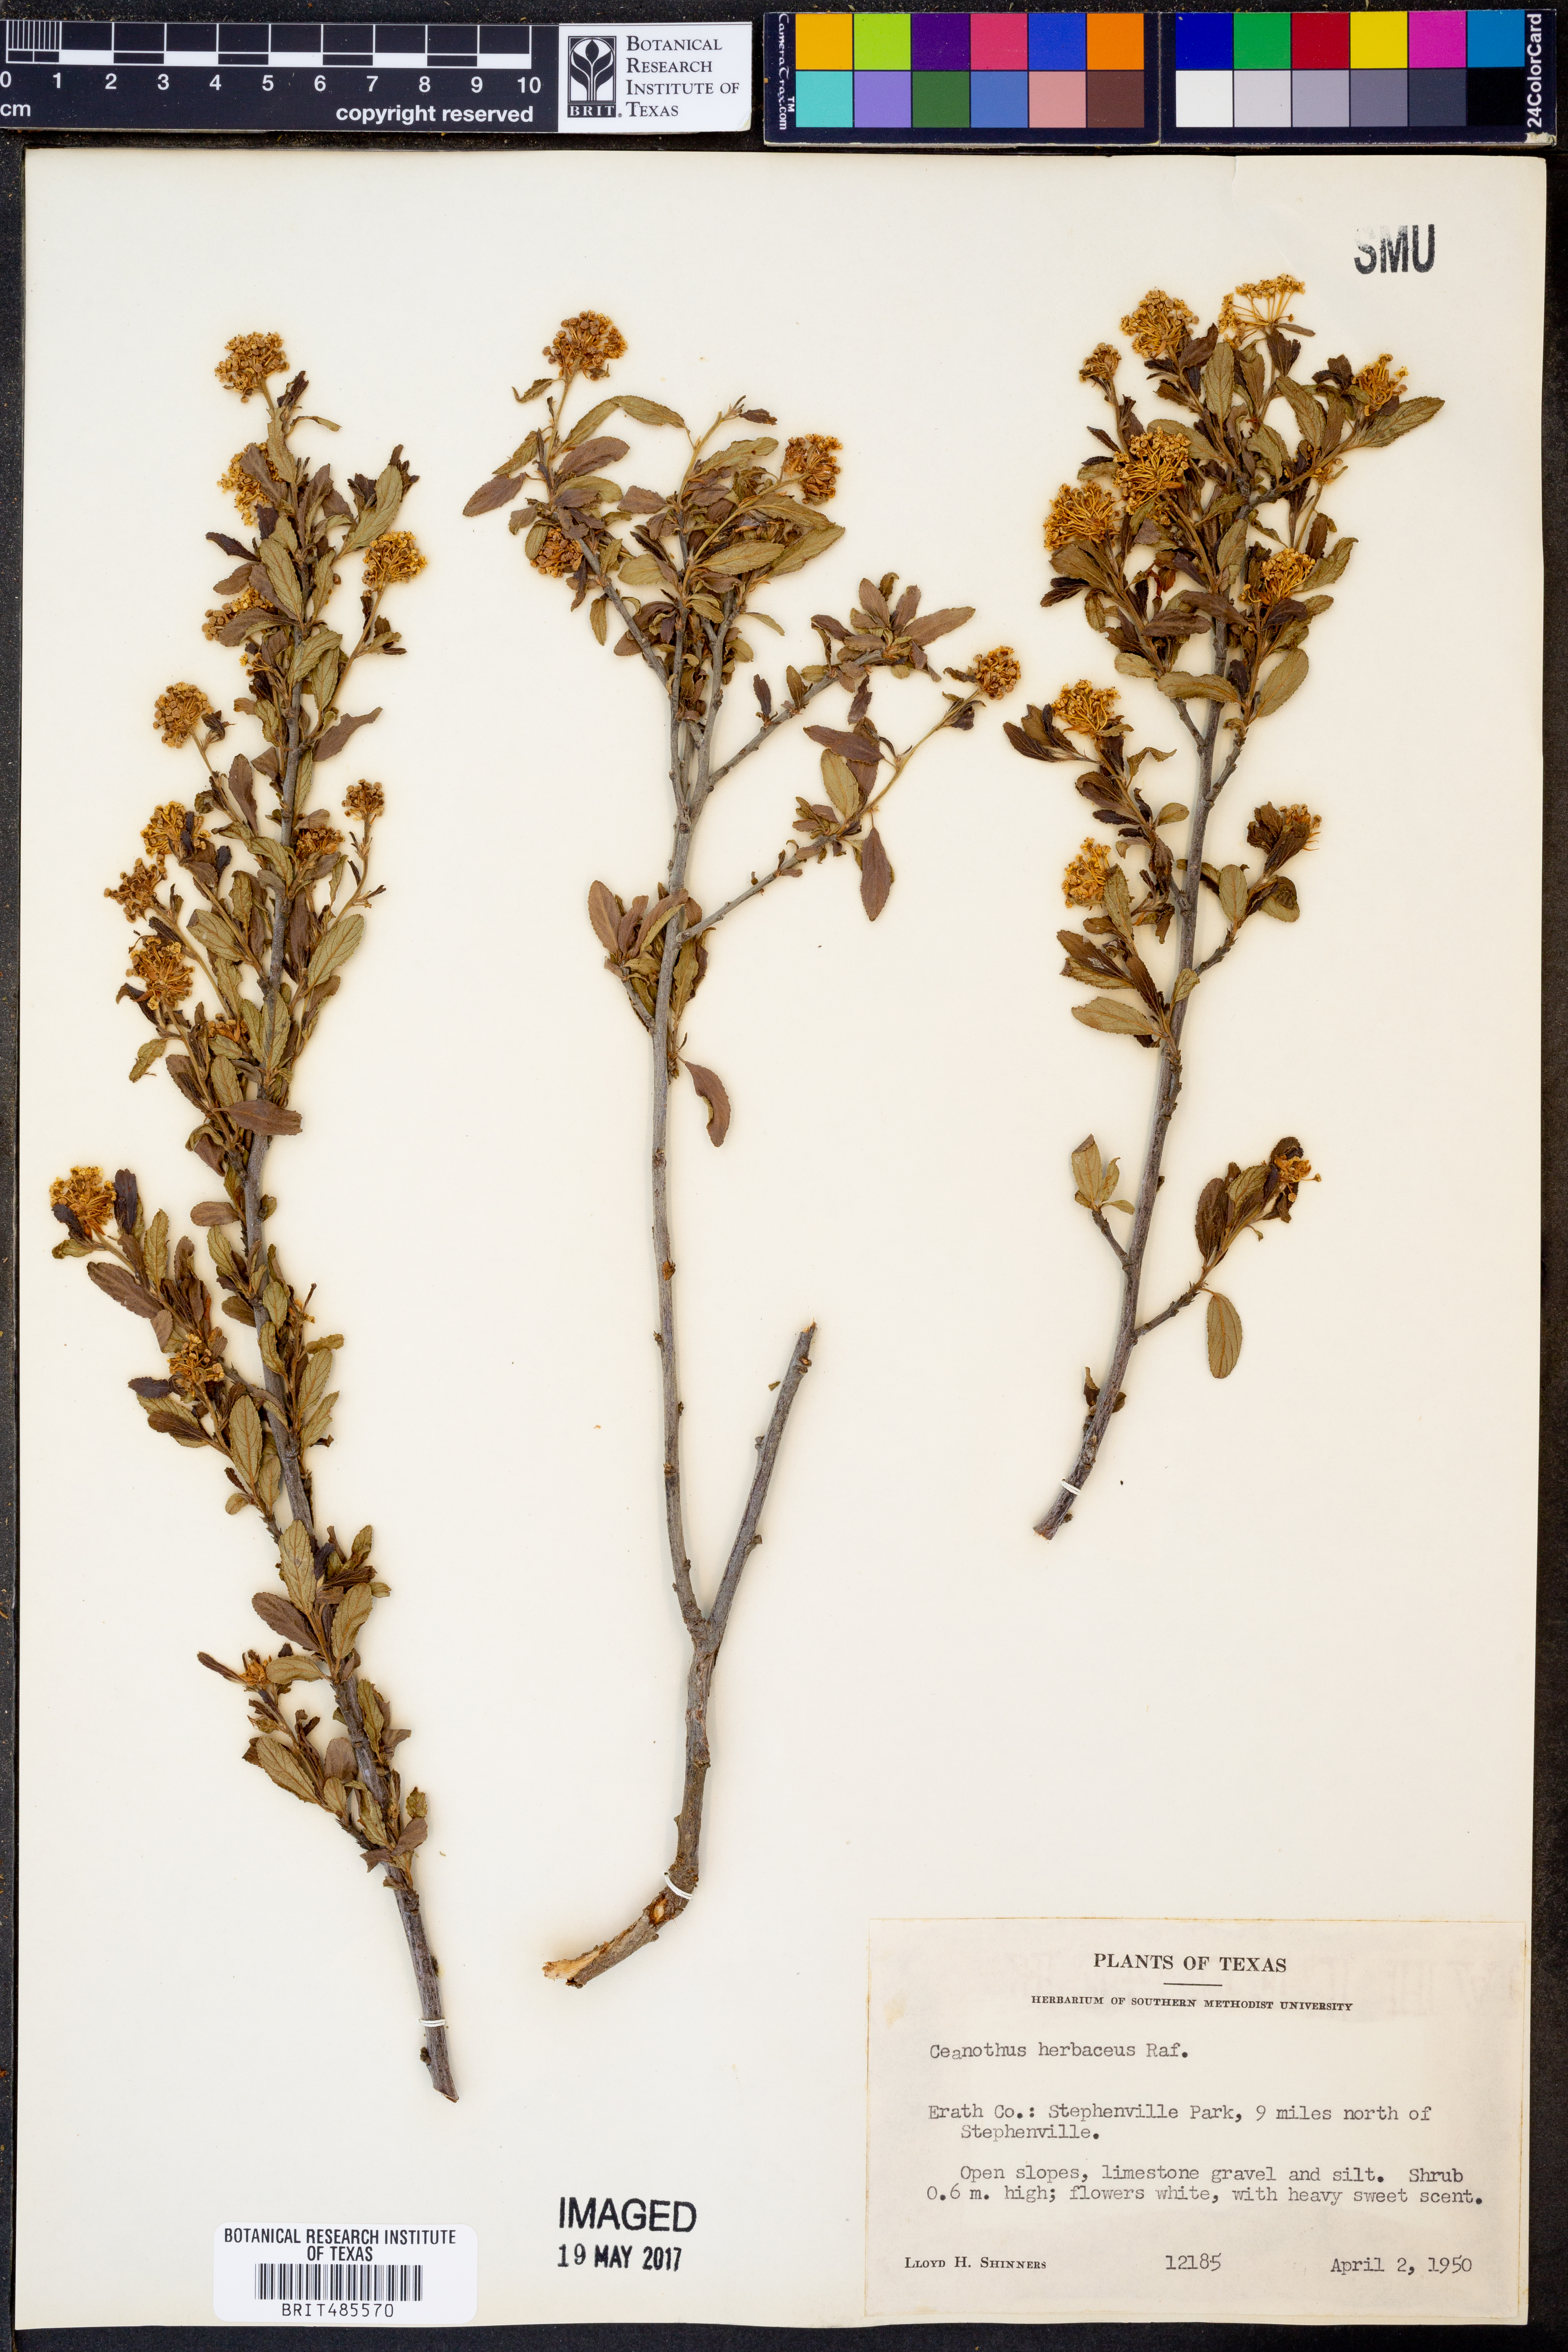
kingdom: Plantae
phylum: Tracheophyta
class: Magnoliopsida
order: Rosales
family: Rhamnaceae
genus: Ceanothus
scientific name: Ceanothus herbaceus
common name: Inland ceanothus
